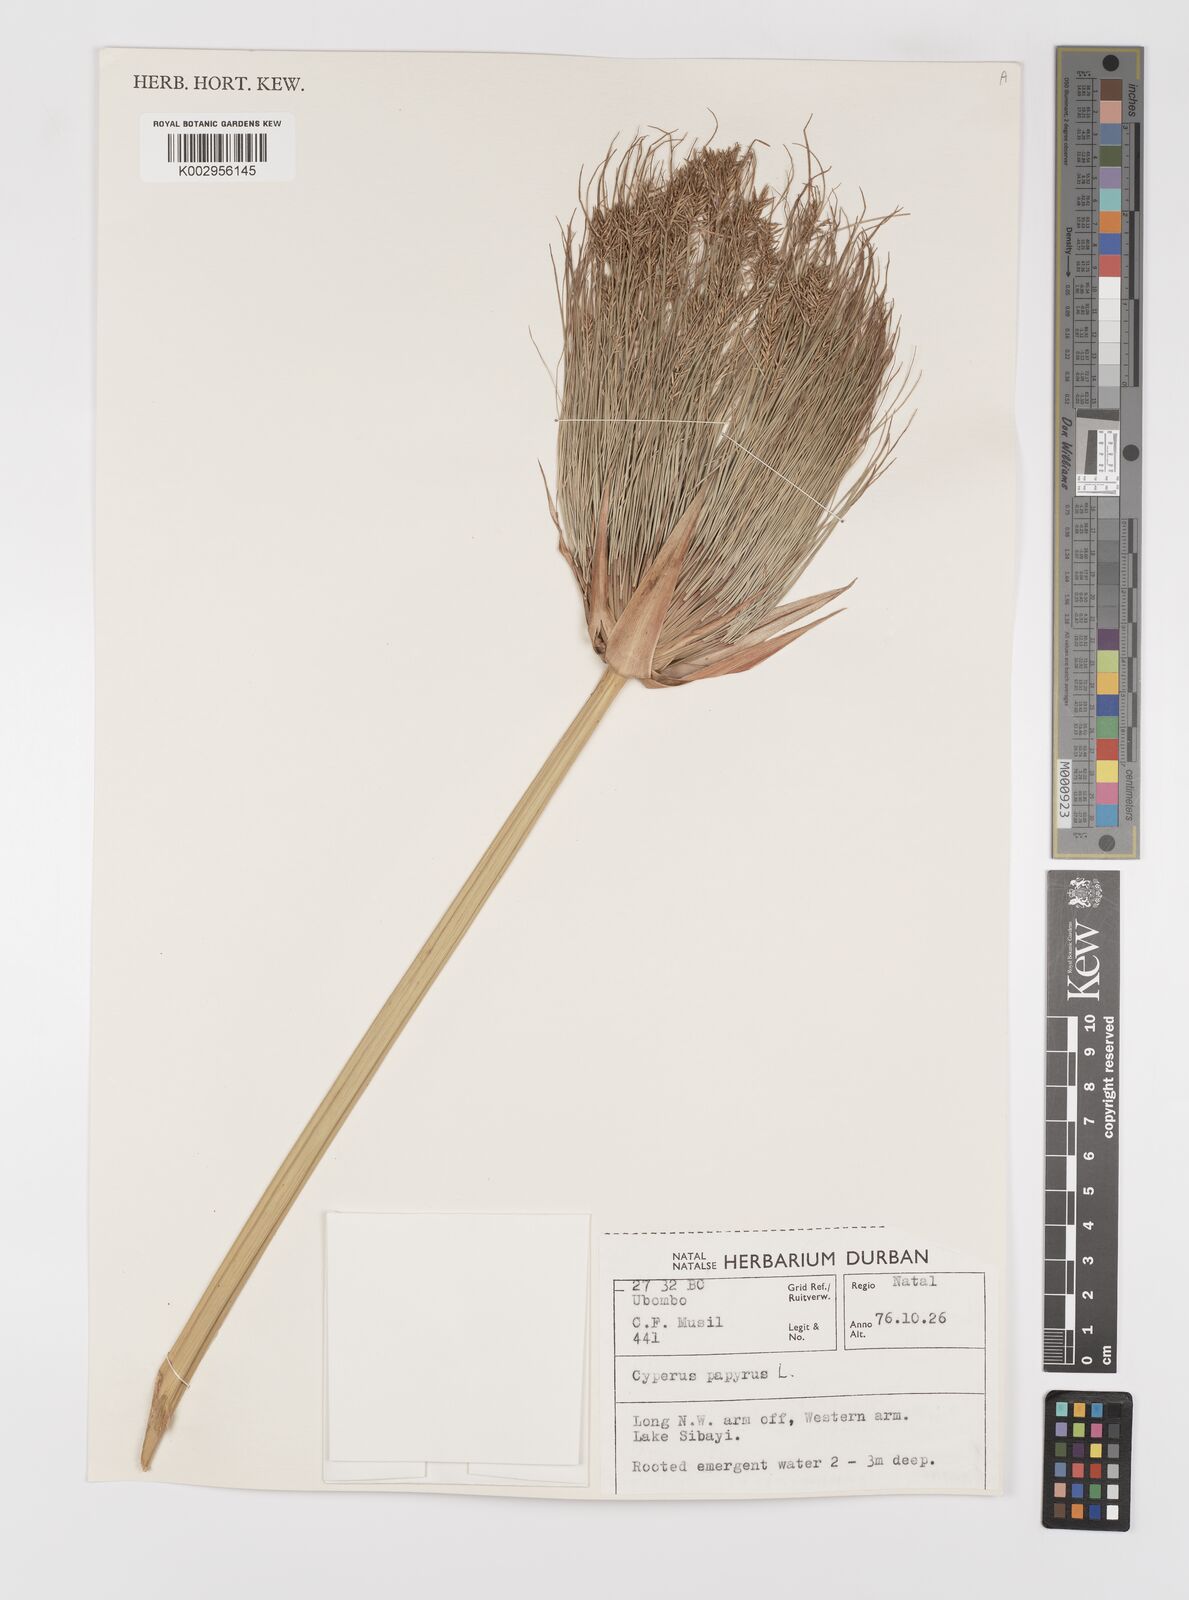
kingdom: Plantae
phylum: Tracheophyta
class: Liliopsida
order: Poales
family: Cyperaceae
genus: Cyperus
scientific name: Cyperus papyrus
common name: Papyrus
